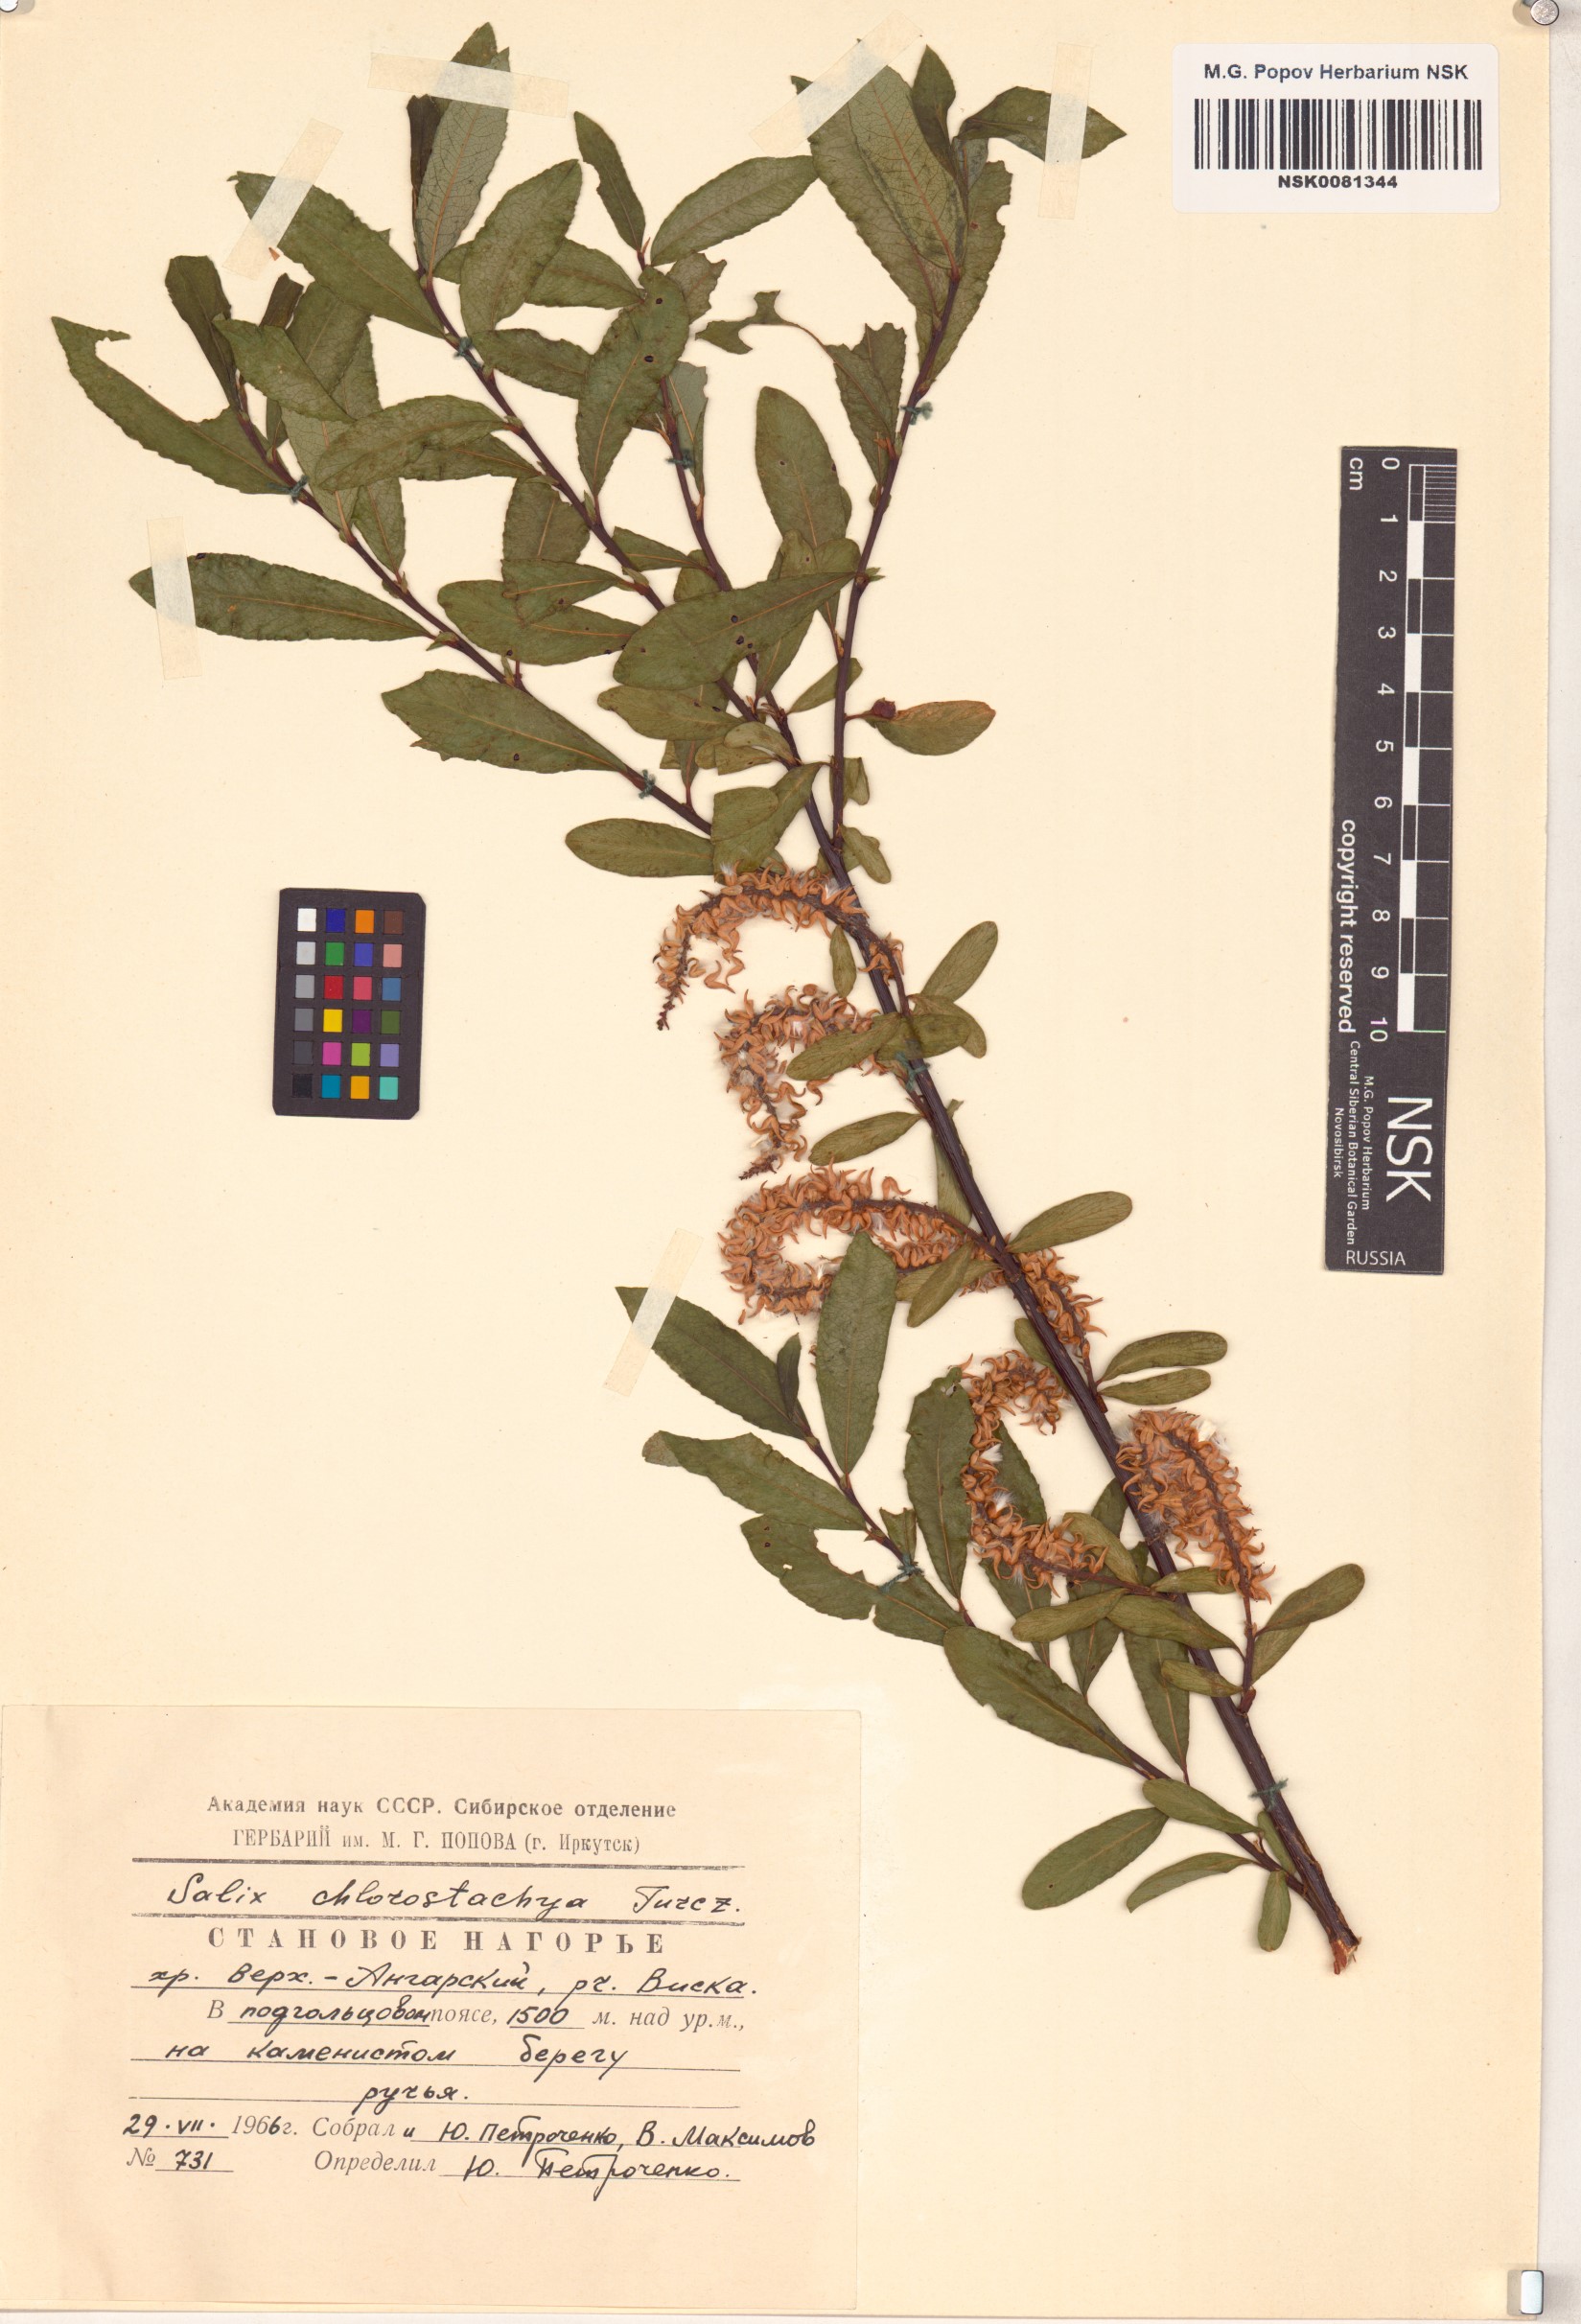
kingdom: Plantae
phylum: Tracheophyta
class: Magnoliopsida
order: Malpighiales
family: Salicaceae
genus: Salix
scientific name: Salix rhamnifolia
